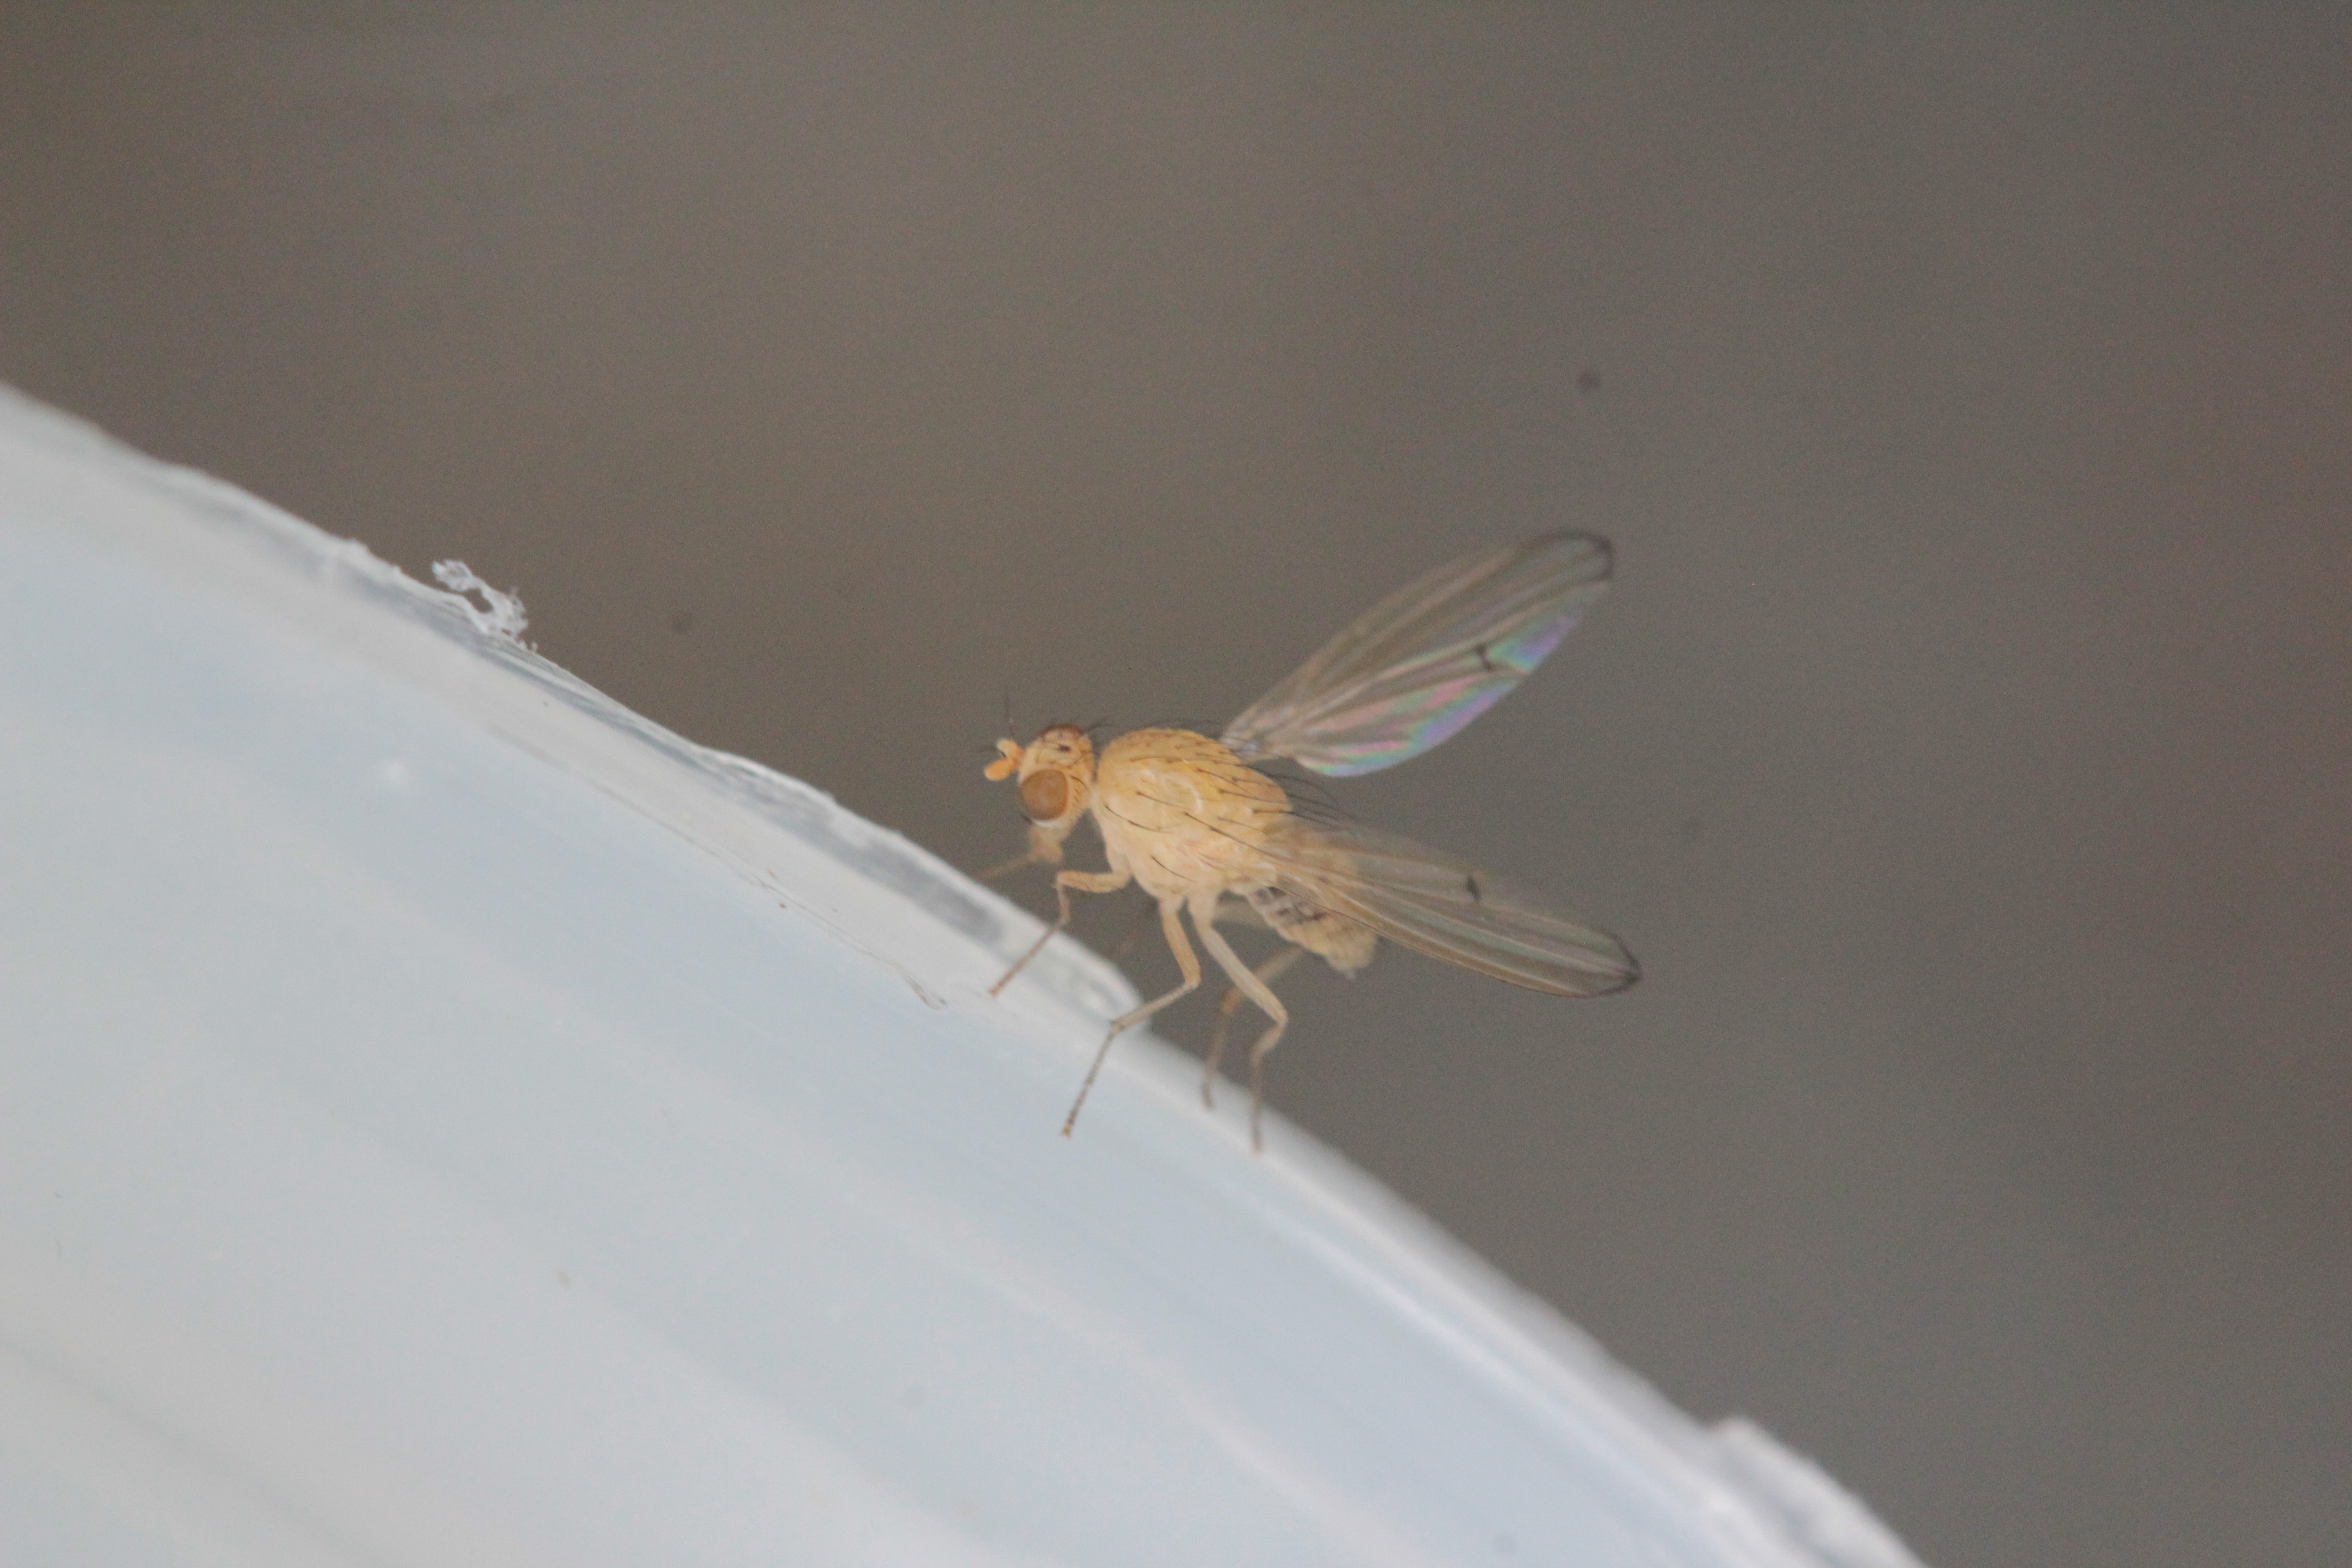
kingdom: Animalia
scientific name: Animalia
